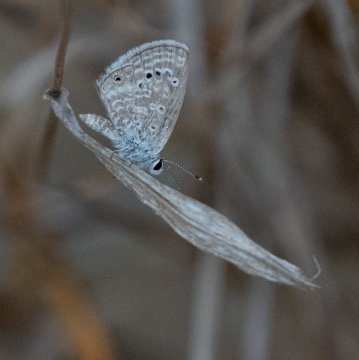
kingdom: Animalia
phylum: Arthropoda
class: Insecta
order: Lepidoptera
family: Lycaenidae
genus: Echinargus
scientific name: Echinargus isola
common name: Reakirt's Blue
